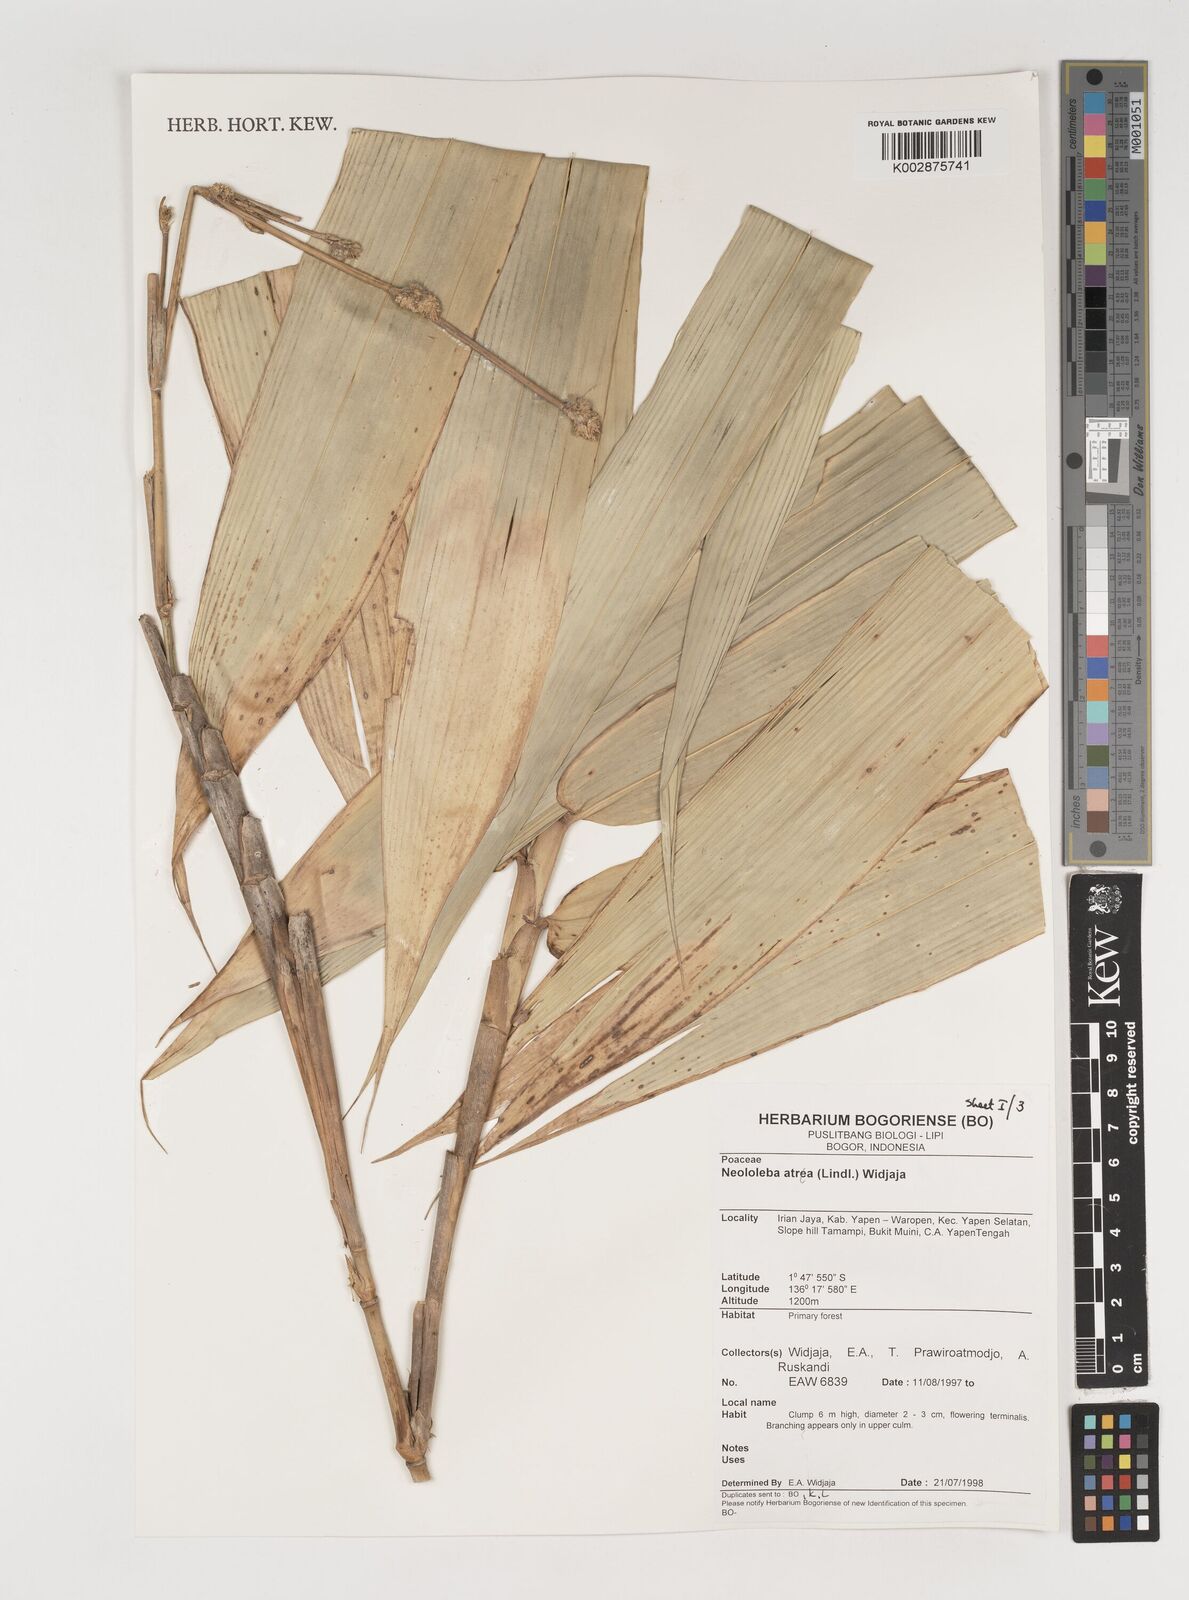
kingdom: Plantae
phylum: Tracheophyta
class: Liliopsida
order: Poales
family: Poaceae
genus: Neololeba
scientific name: Neololeba atra
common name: Cape bamboo
